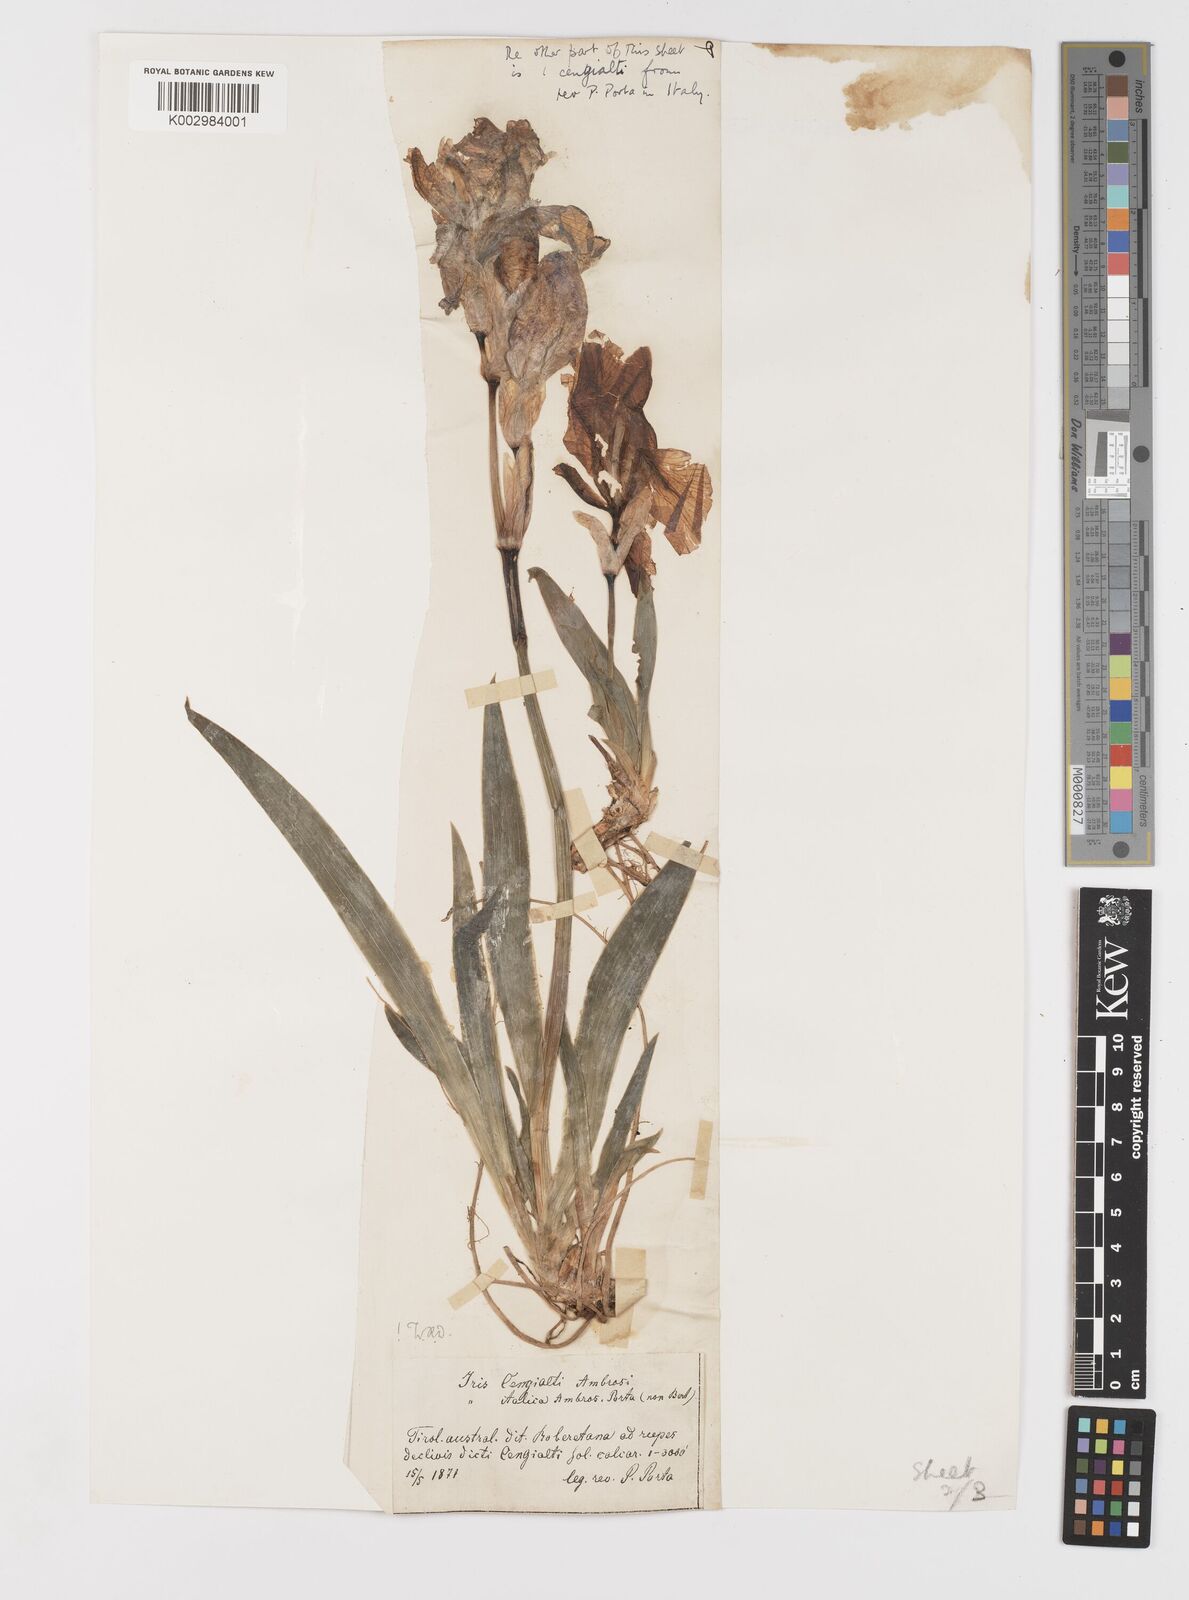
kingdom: Plantae
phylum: Tracheophyta
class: Liliopsida
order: Asparagales
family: Iridaceae
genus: Iris
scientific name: Iris pallida
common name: Sweet iris
